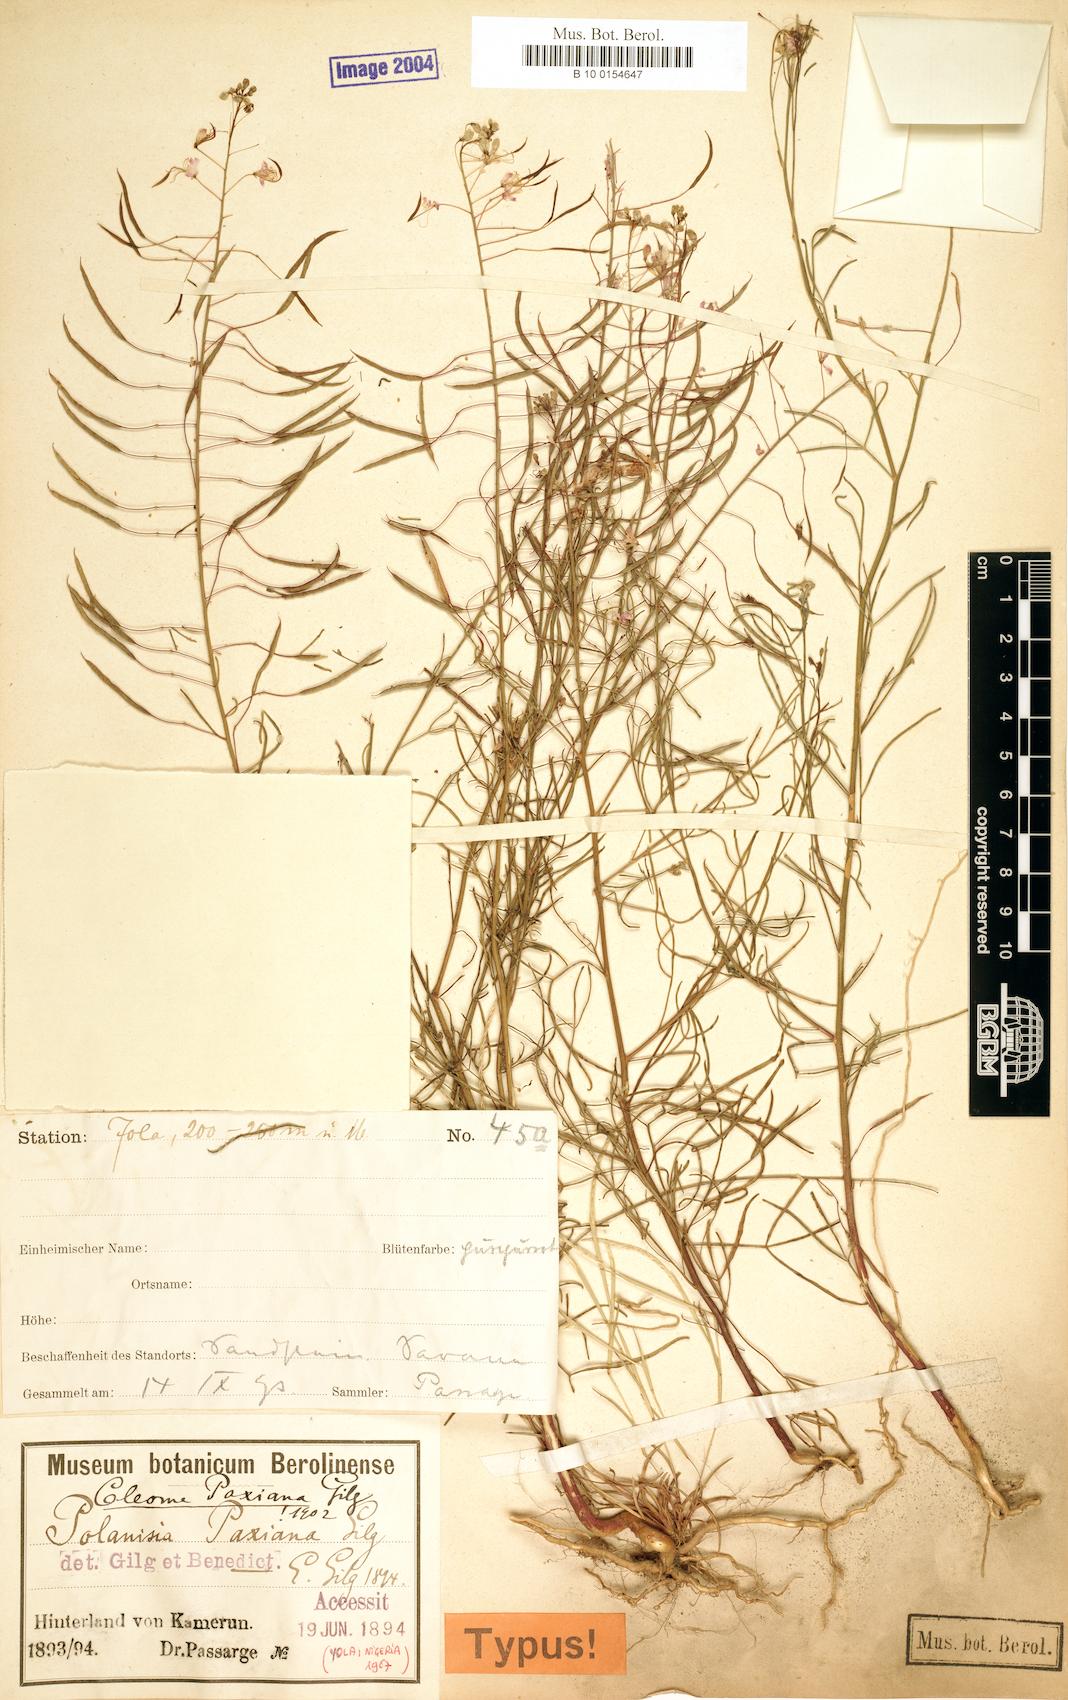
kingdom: Plantae
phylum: Tracheophyta
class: Magnoliopsida
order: Brassicales
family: Cleomaceae
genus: Coalisina
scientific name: Coalisina polyanthera
